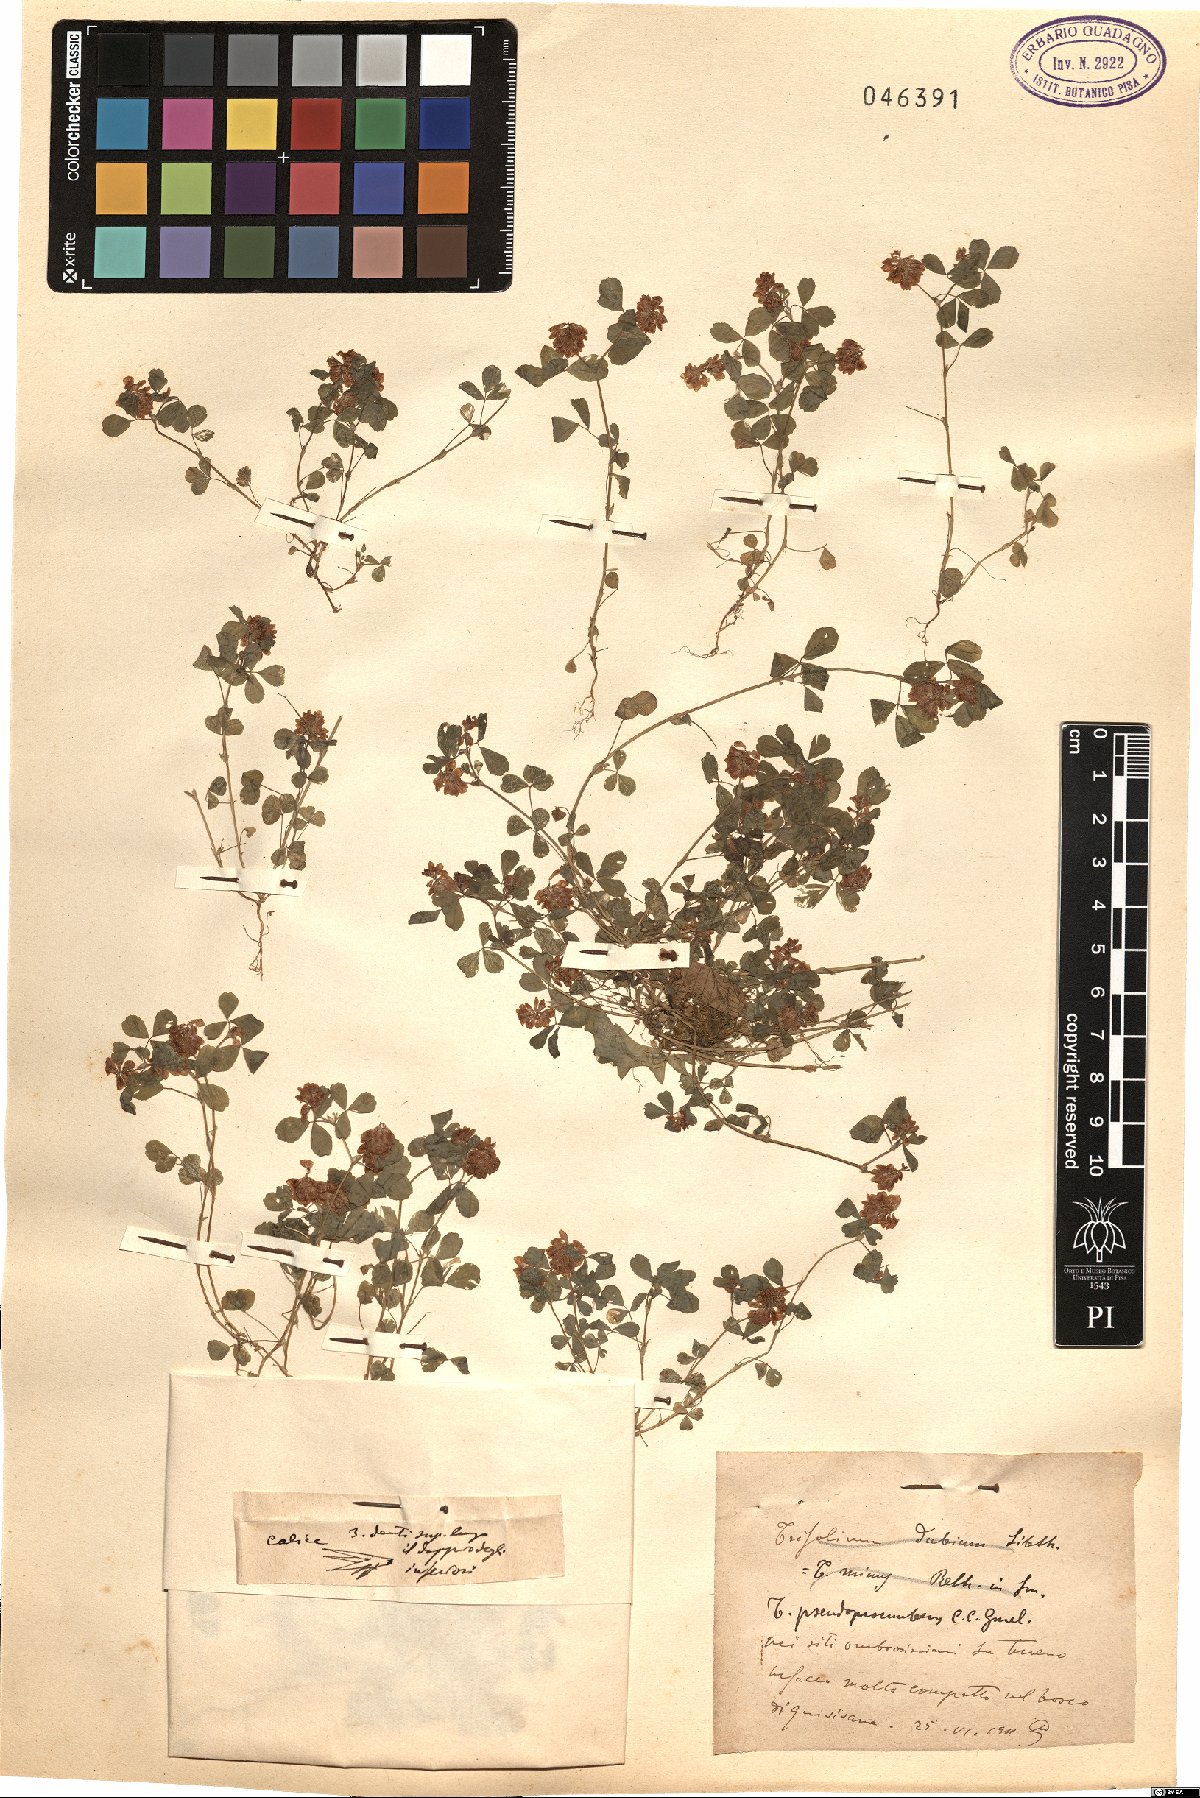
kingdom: Plantae
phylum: Tracheophyta
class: Magnoliopsida
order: Fabales
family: Fabaceae
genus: Trifolium
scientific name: Trifolium campestre
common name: Field clover
